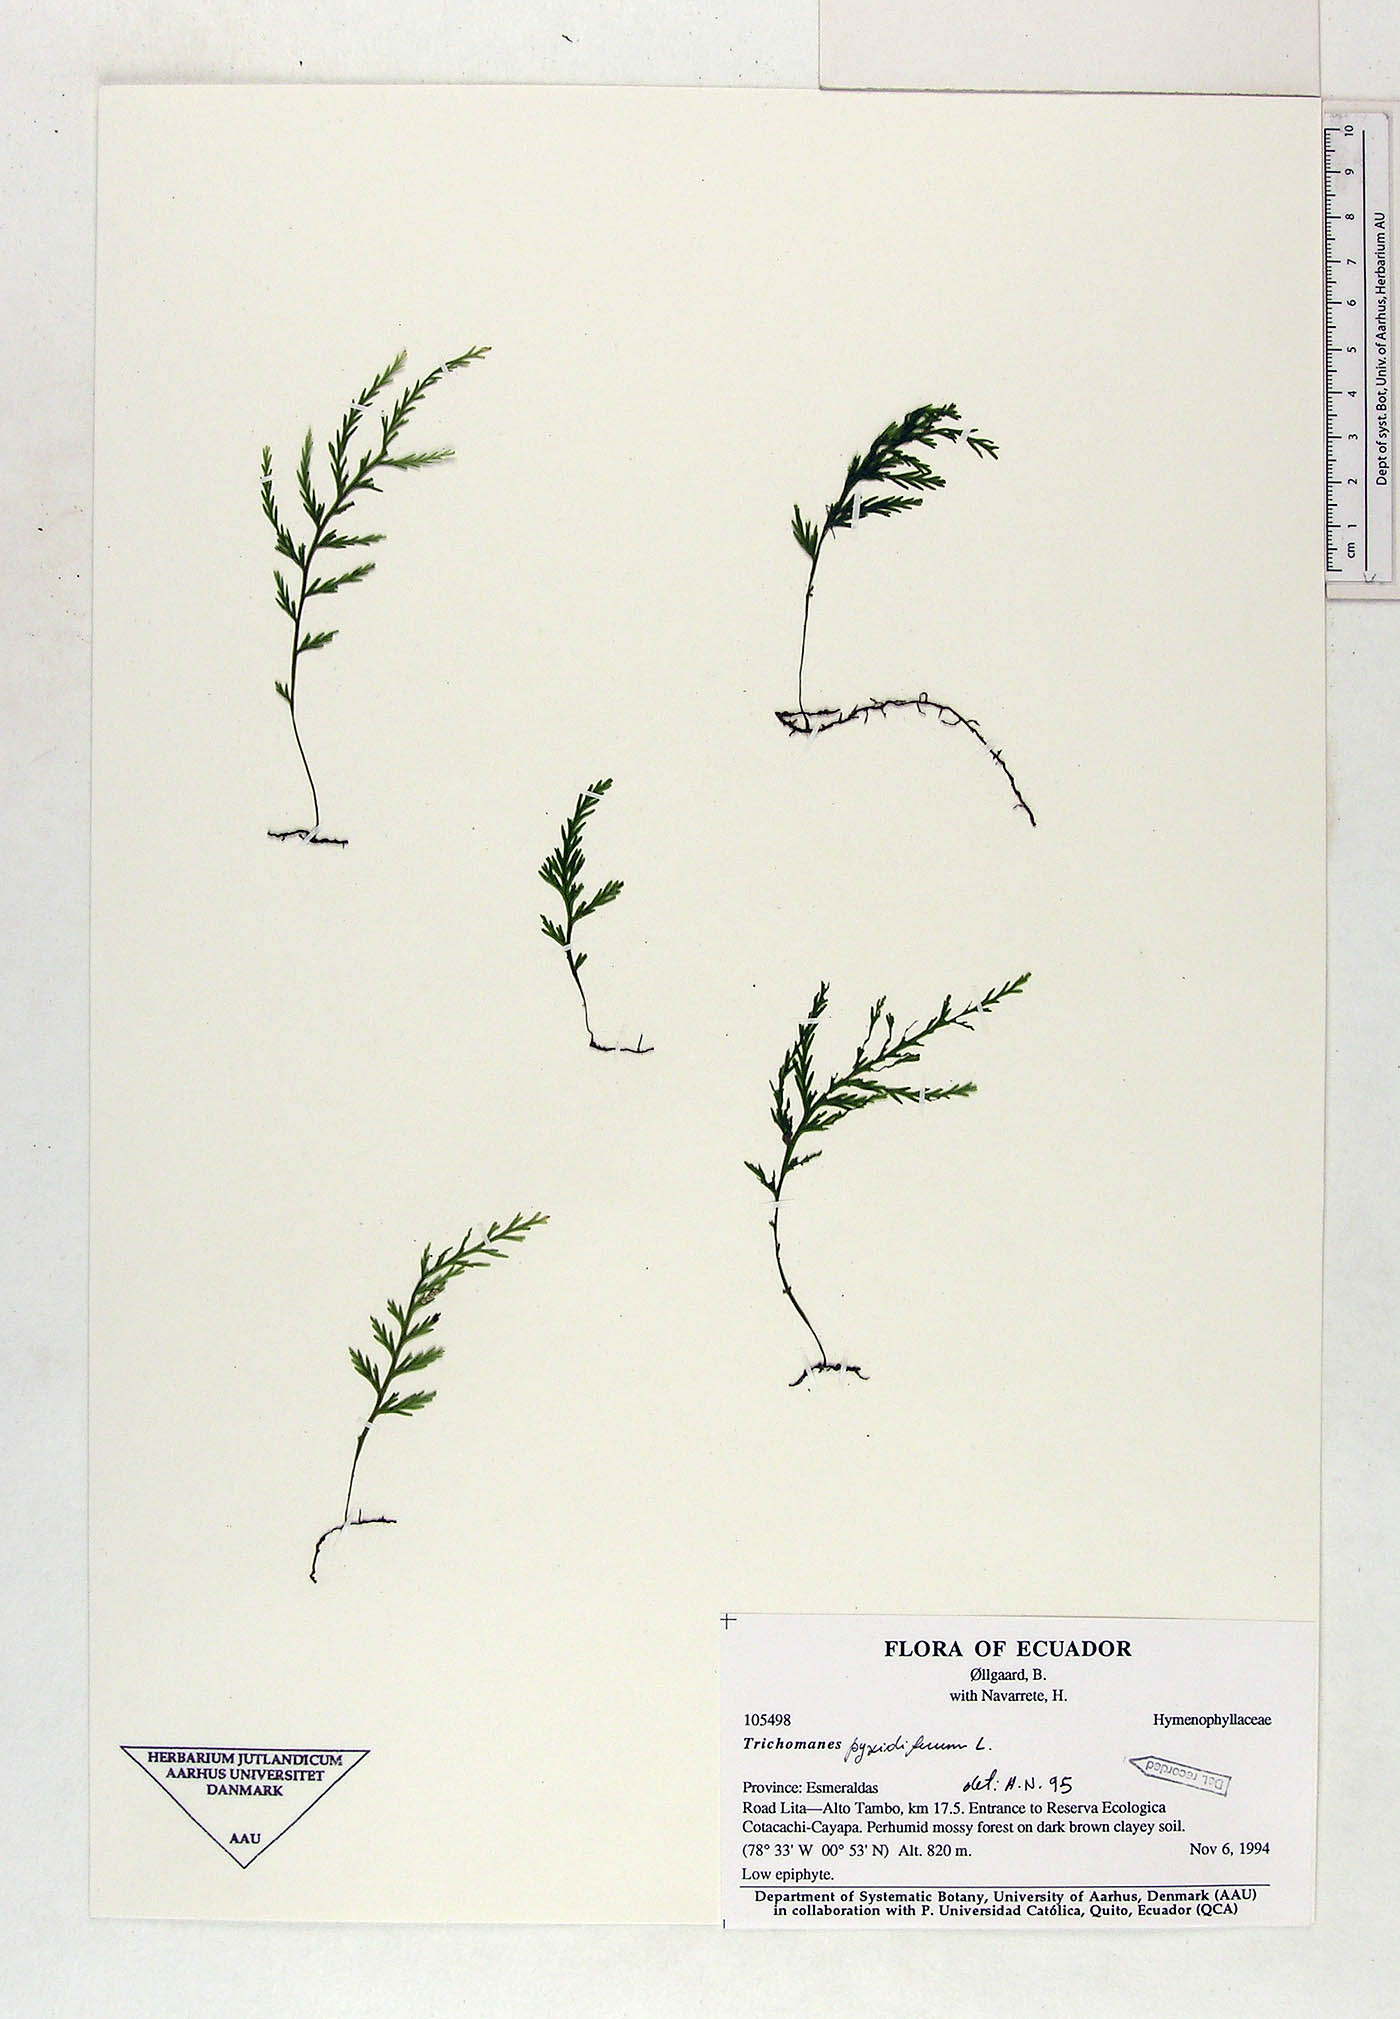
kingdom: Plantae
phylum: Tracheophyta
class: Polypodiopsida
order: Hymenophyllales
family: Hymenophyllaceae
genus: Polyphlebium
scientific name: Polyphlebium pyxidiferum
